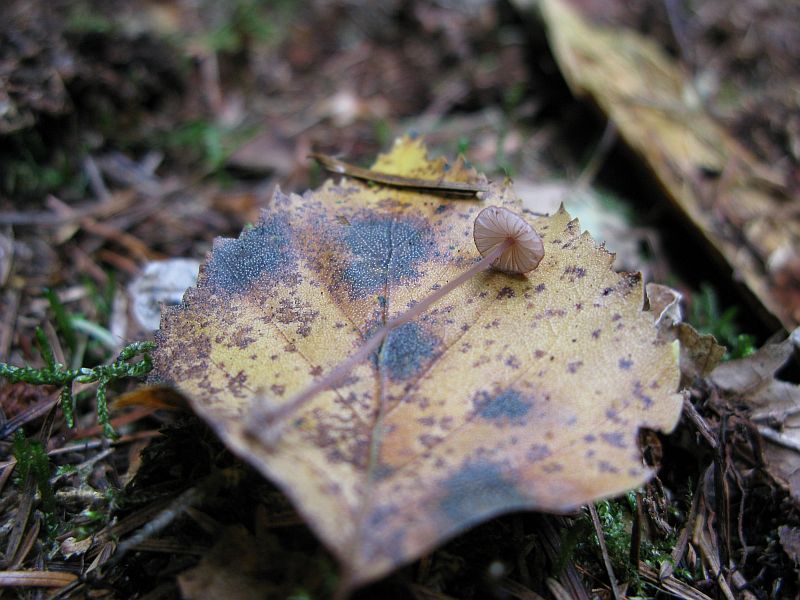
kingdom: Fungi
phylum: Basidiomycota
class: Agaricomycetes
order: Agaricales
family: Mycenaceae
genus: Mycena
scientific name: Mycena sanguinolenta
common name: rødmælket huesvamp
